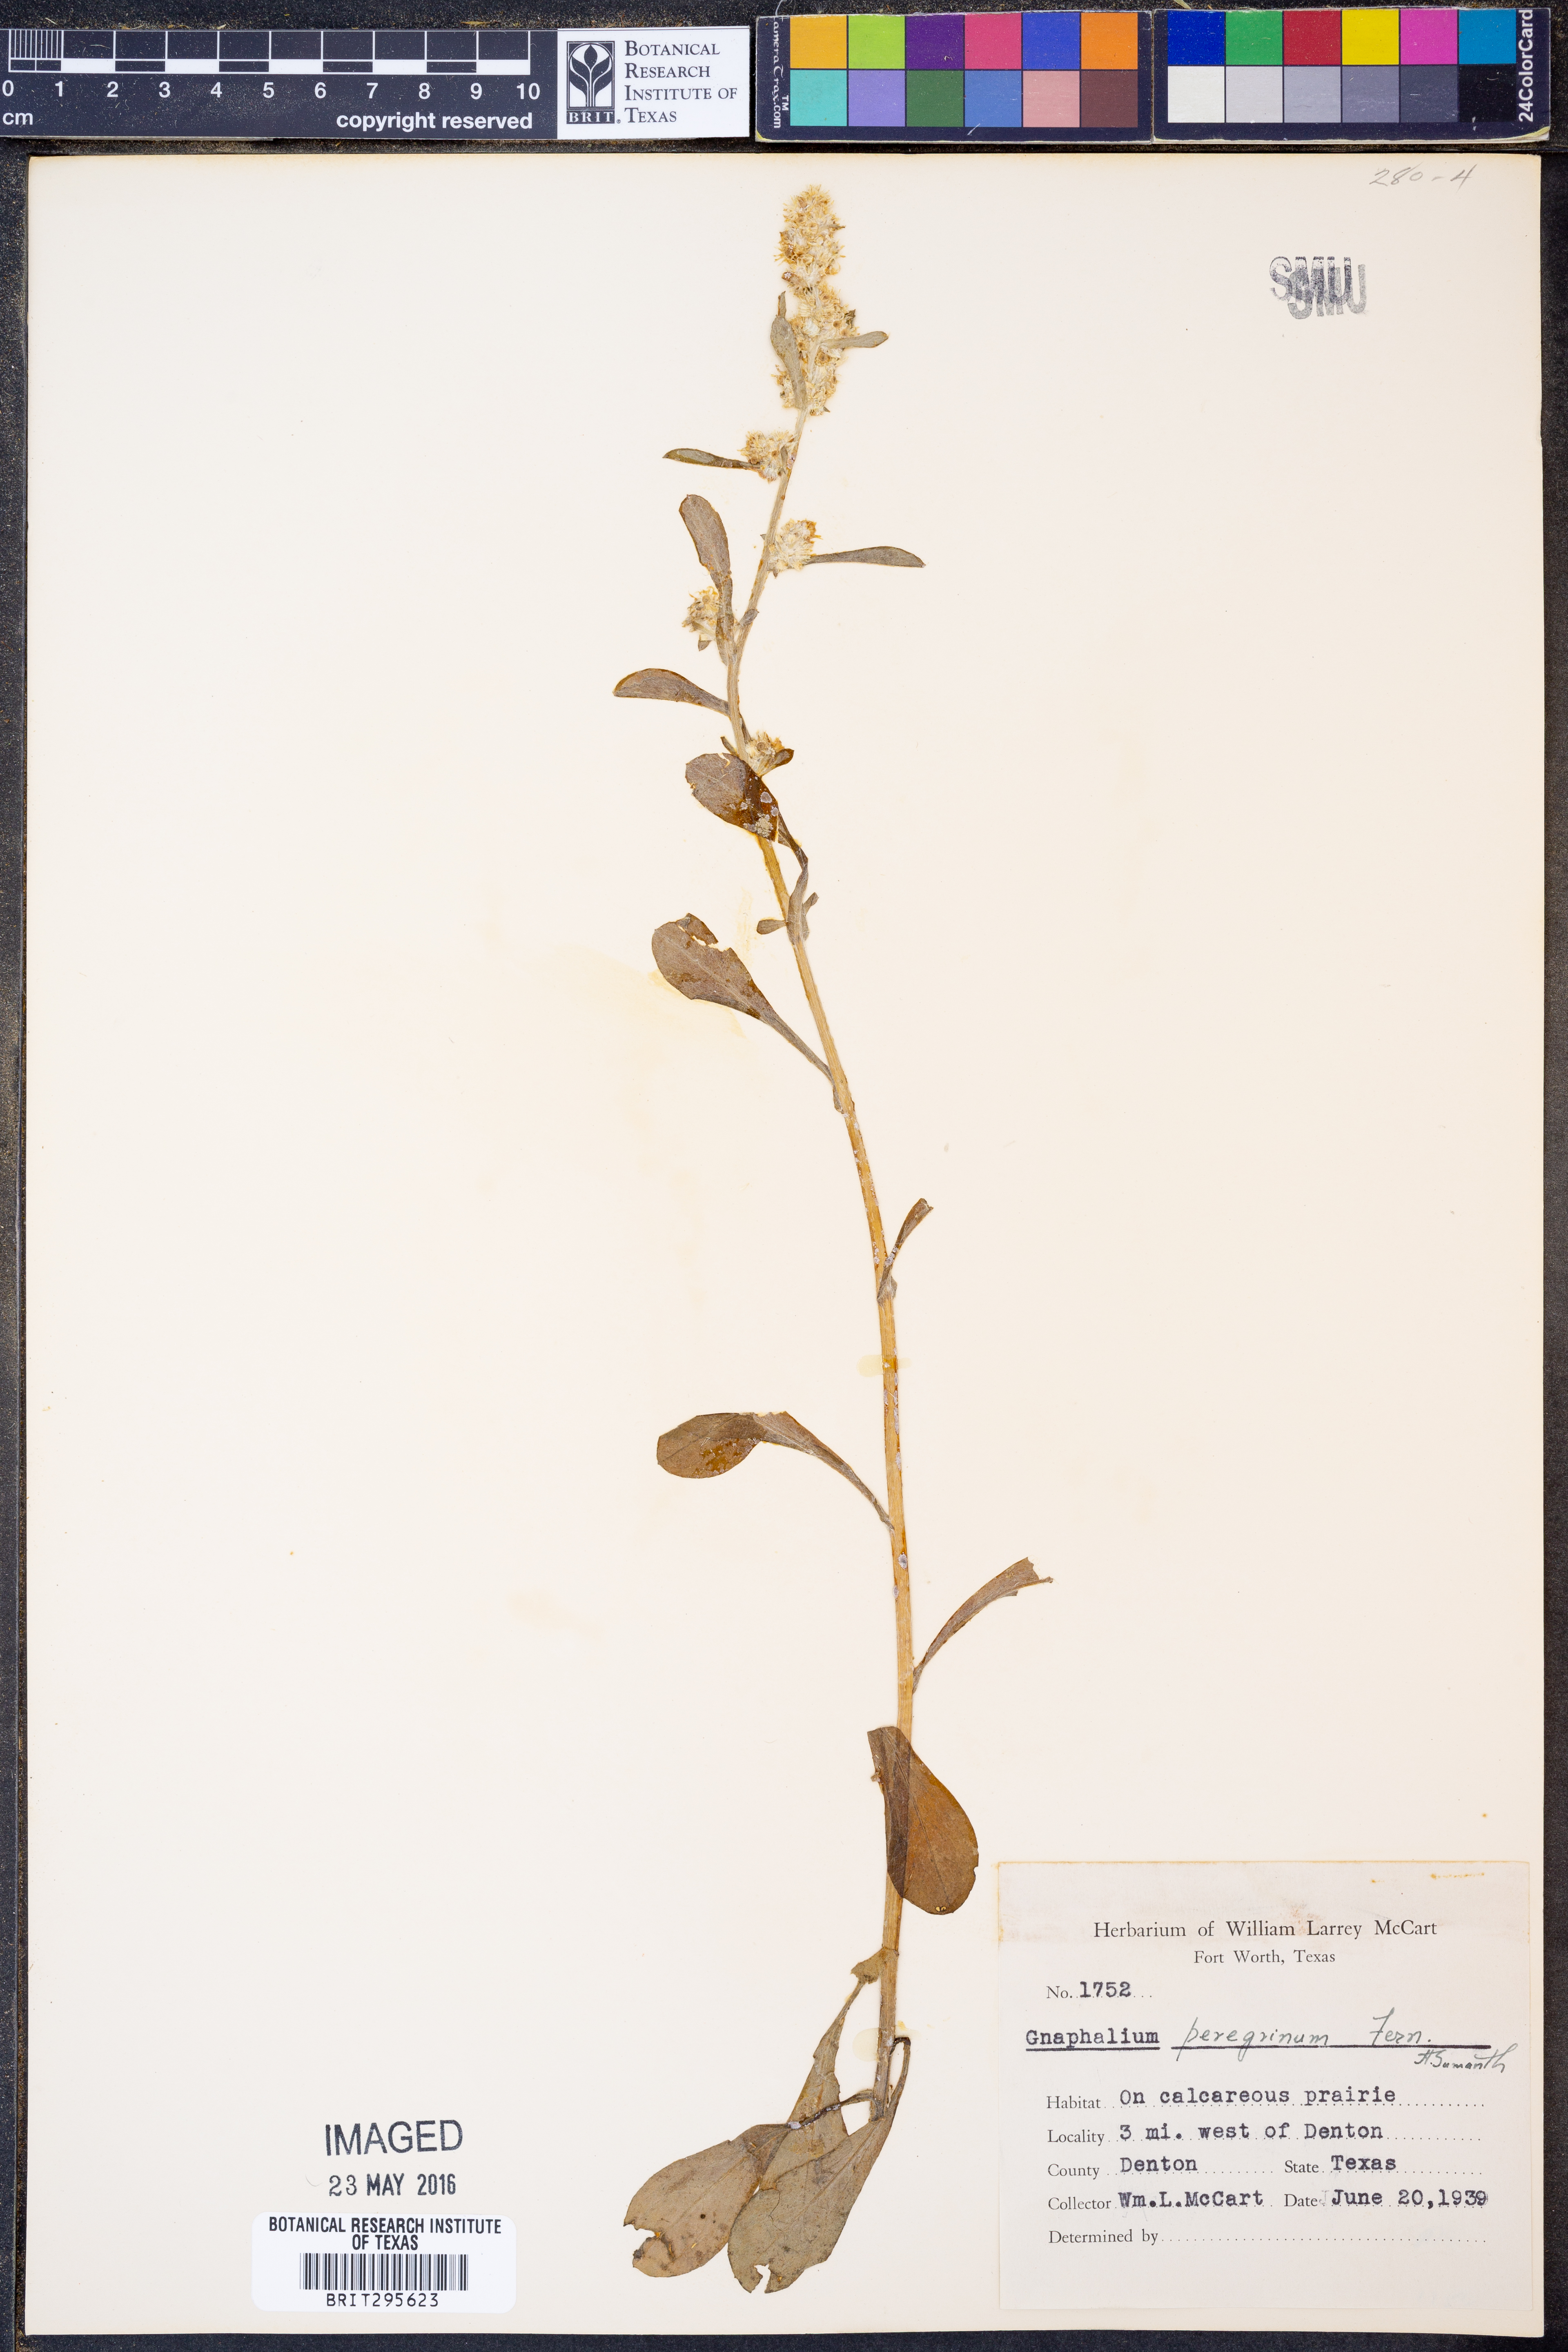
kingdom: Plantae
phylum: Tracheophyta
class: Magnoliopsida
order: Asterales
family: Asteraceae
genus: Gamochaeta
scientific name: Gamochaeta pensylvanica
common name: Pennsylvania everlasting
